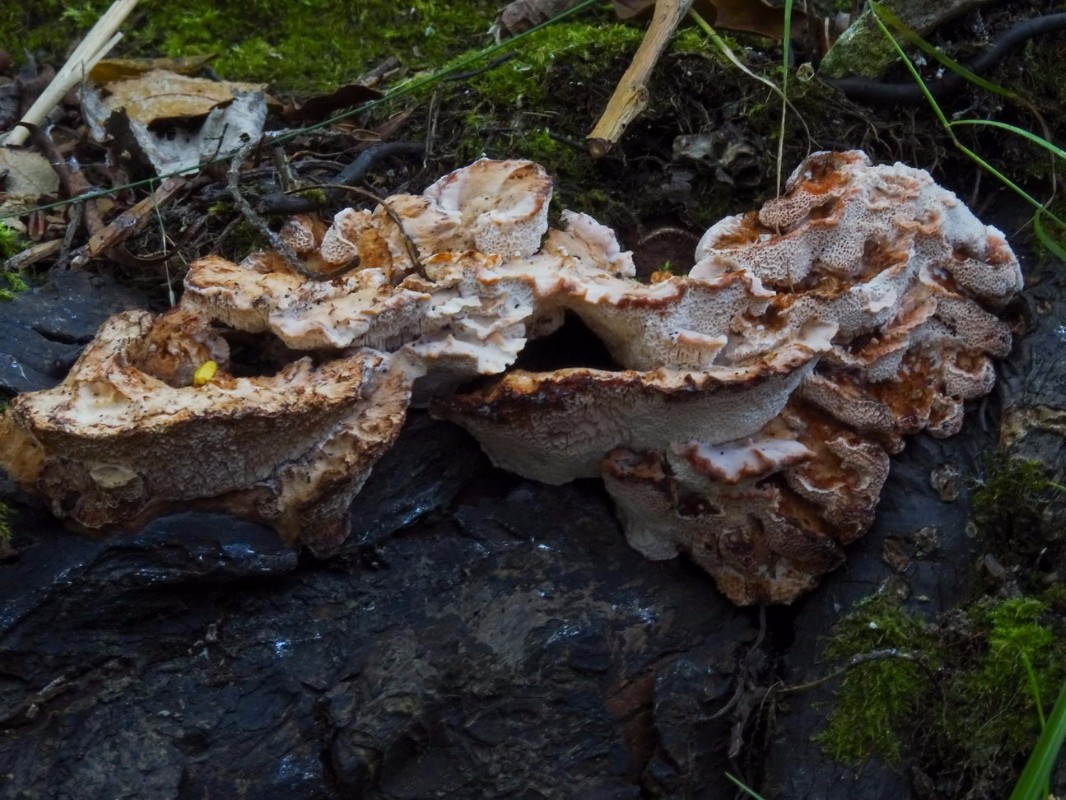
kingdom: Fungi
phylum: Basidiomycota
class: Agaricomycetes
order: Polyporales
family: Podoscyphaceae
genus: Abortiporus
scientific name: Abortiporus biennis
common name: rødmende pjalteporesvamp
